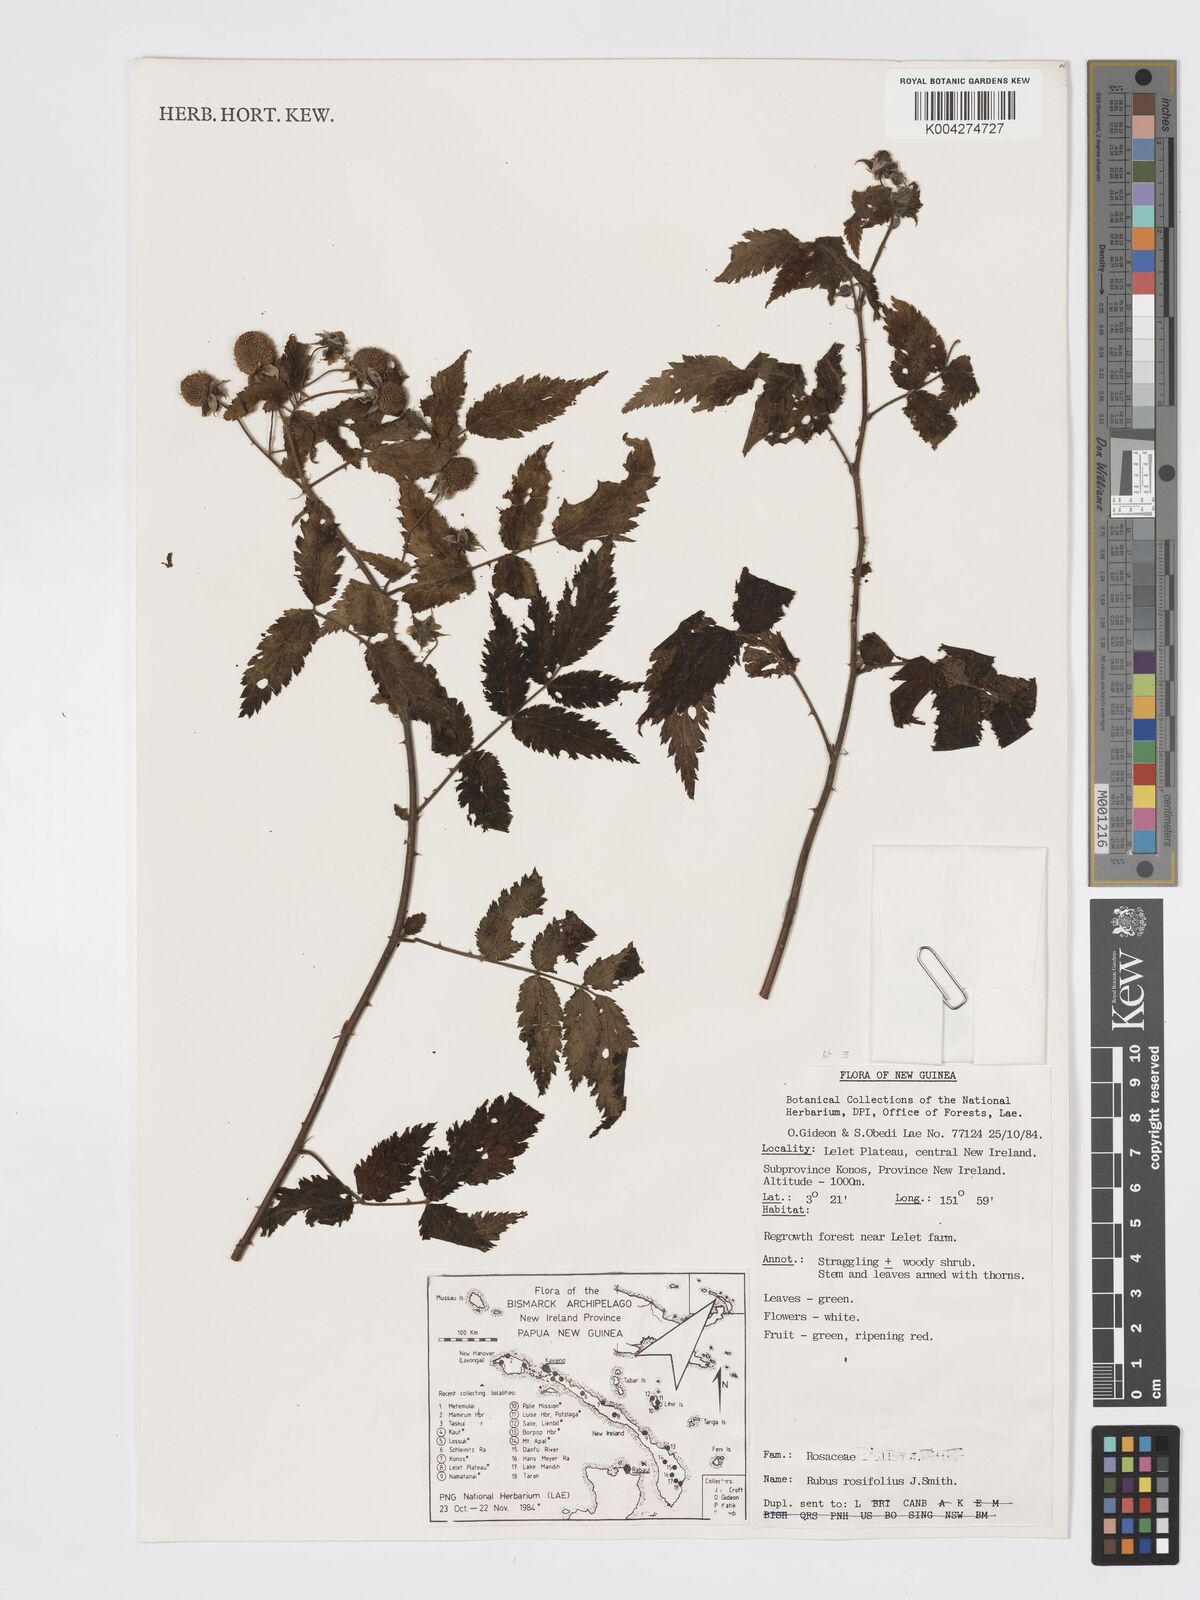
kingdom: Plantae
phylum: Tracheophyta
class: Magnoliopsida
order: Rosales
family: Rosaceae
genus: Rubus
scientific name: Rubus
